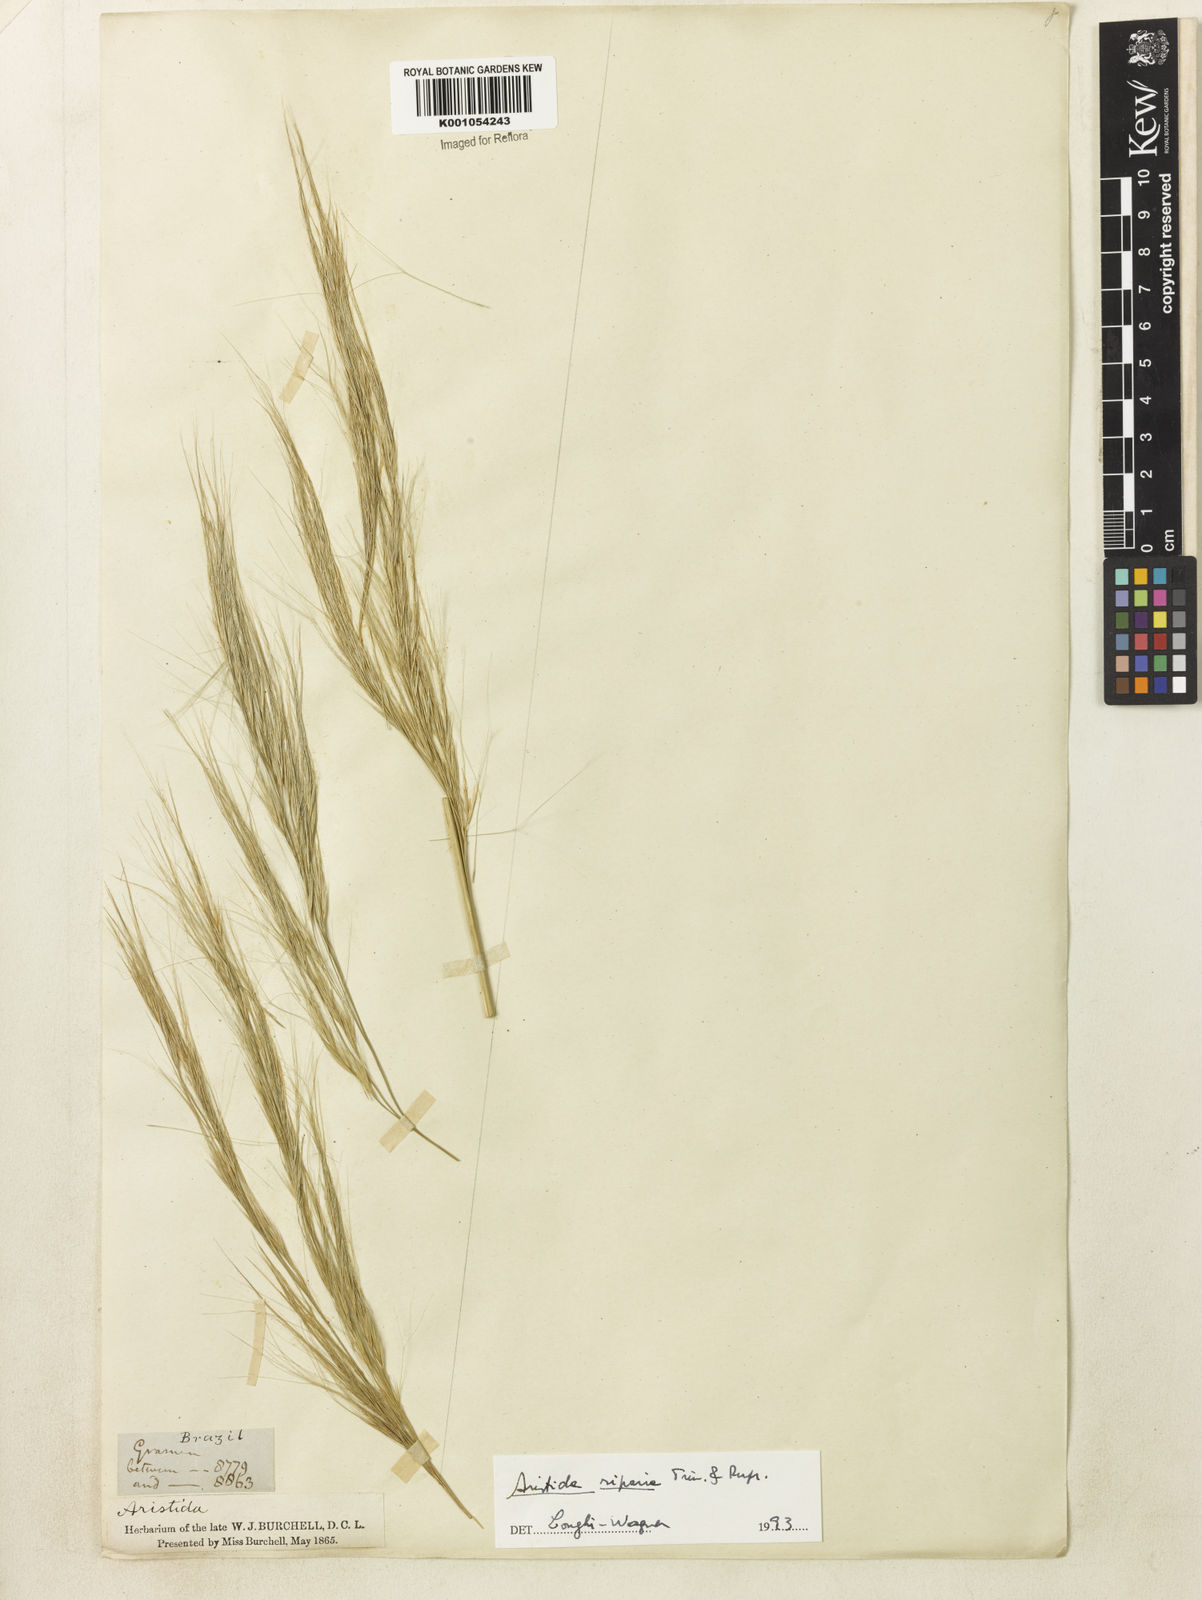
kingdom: Plantae
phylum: Tracheophyta
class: Liliopsida
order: Poales
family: Poaceae
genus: Aristida
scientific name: Aristida riparia
